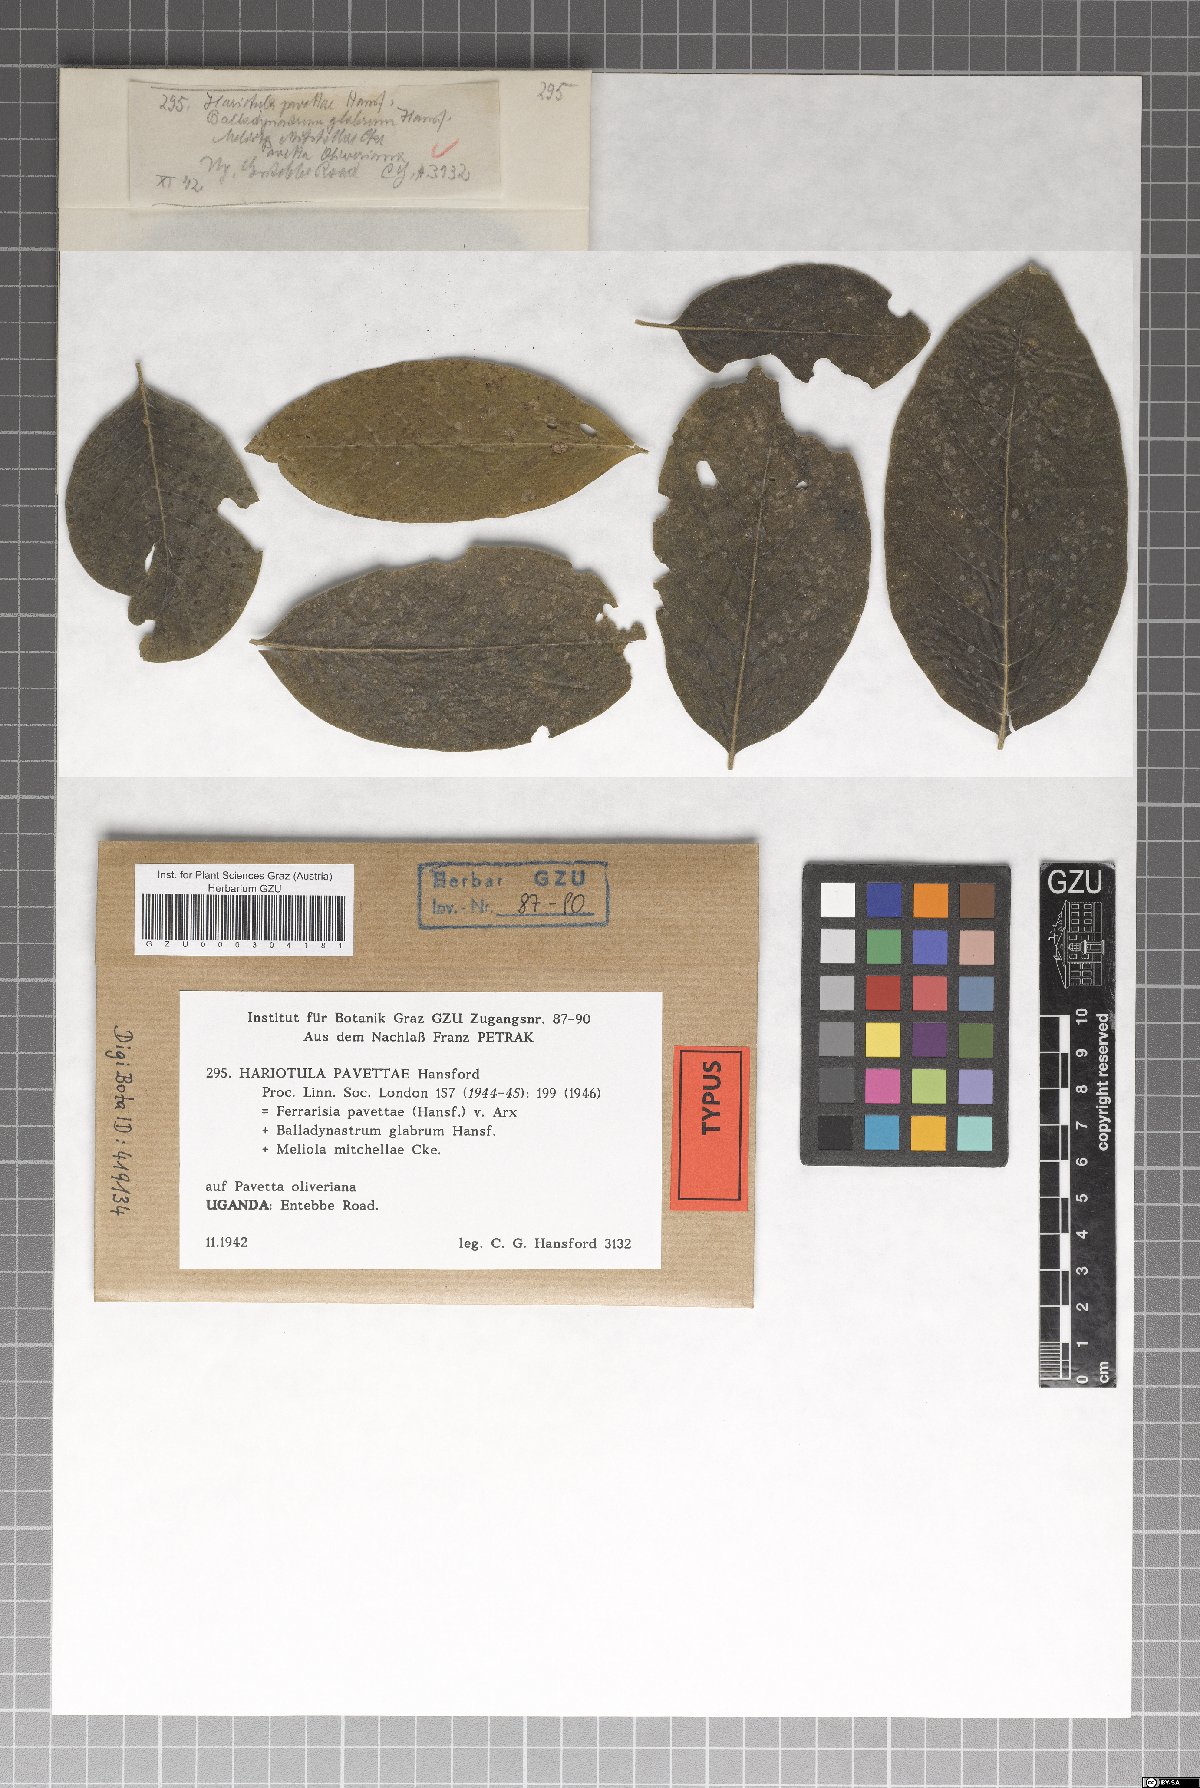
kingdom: Fungi
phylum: Ascomycota
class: Dothideomycetes
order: Asterinales
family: Parmulariaceae
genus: Ferrarisia
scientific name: Ferrarisia pavettae
